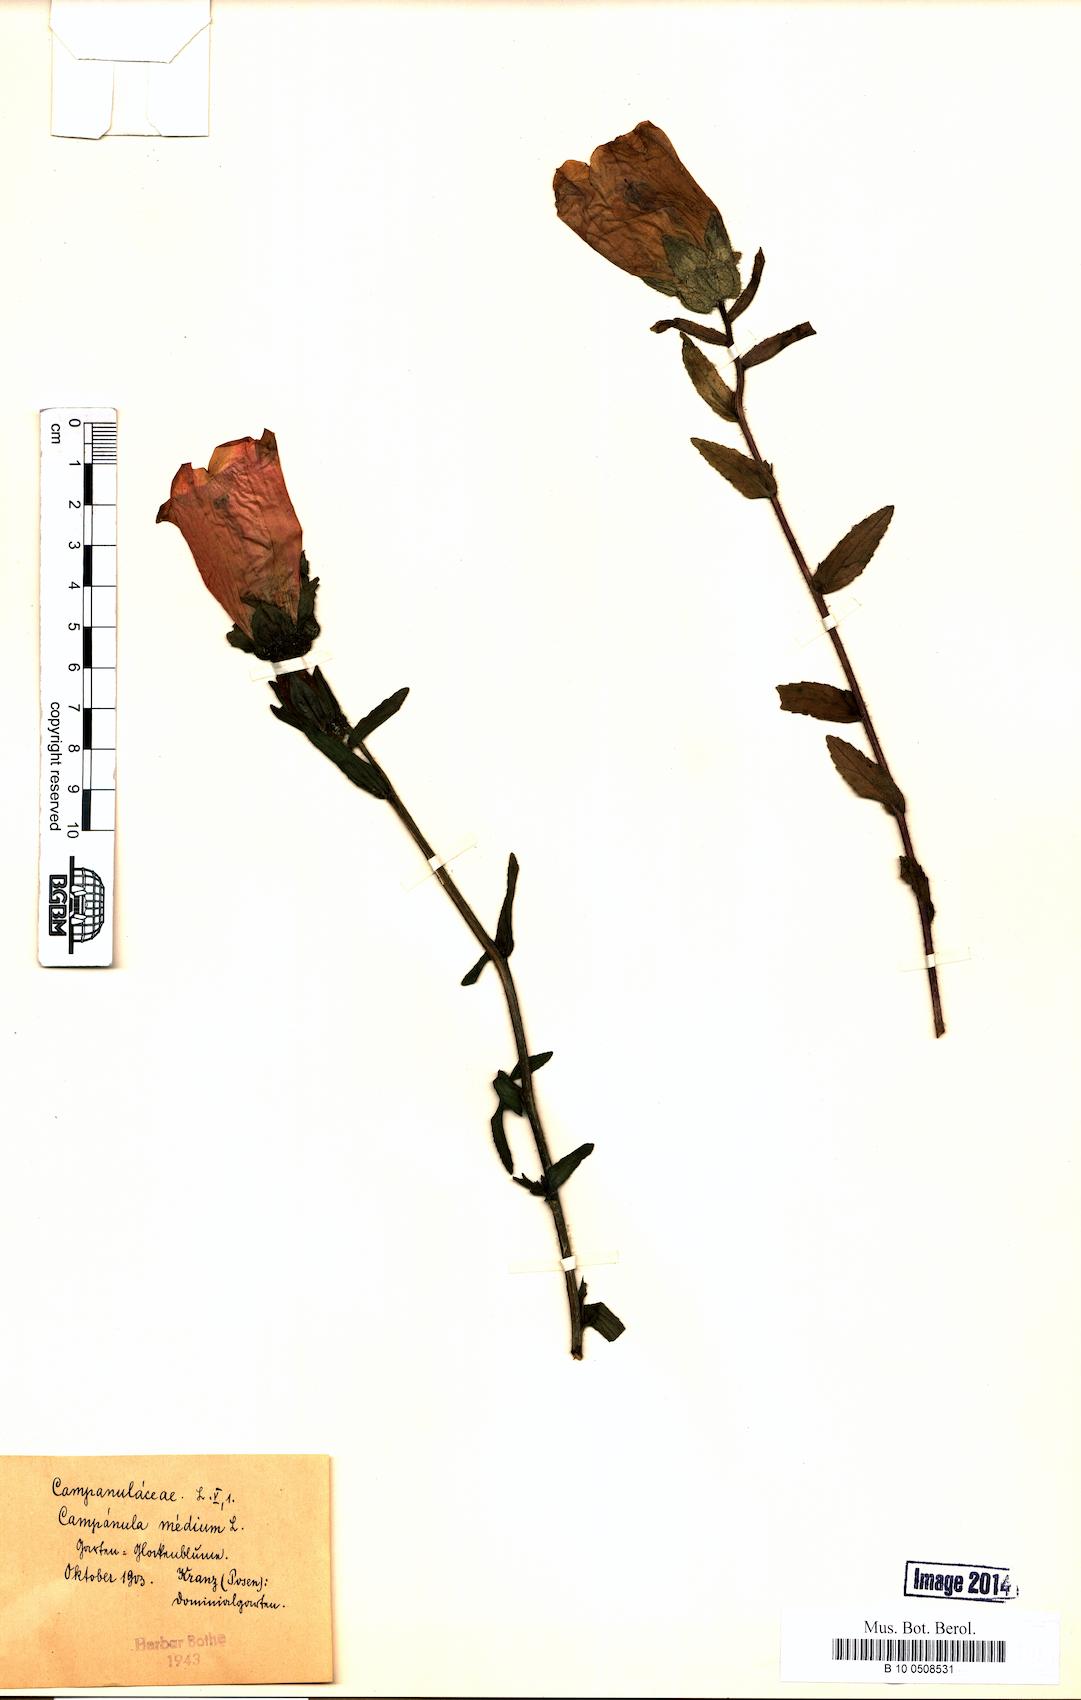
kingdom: Plantae
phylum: Tracheophyta
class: Magnoliopsida
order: Asterales
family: Campanulaceae
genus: Campanula
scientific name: Campanula medium
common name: Canterbury bells
